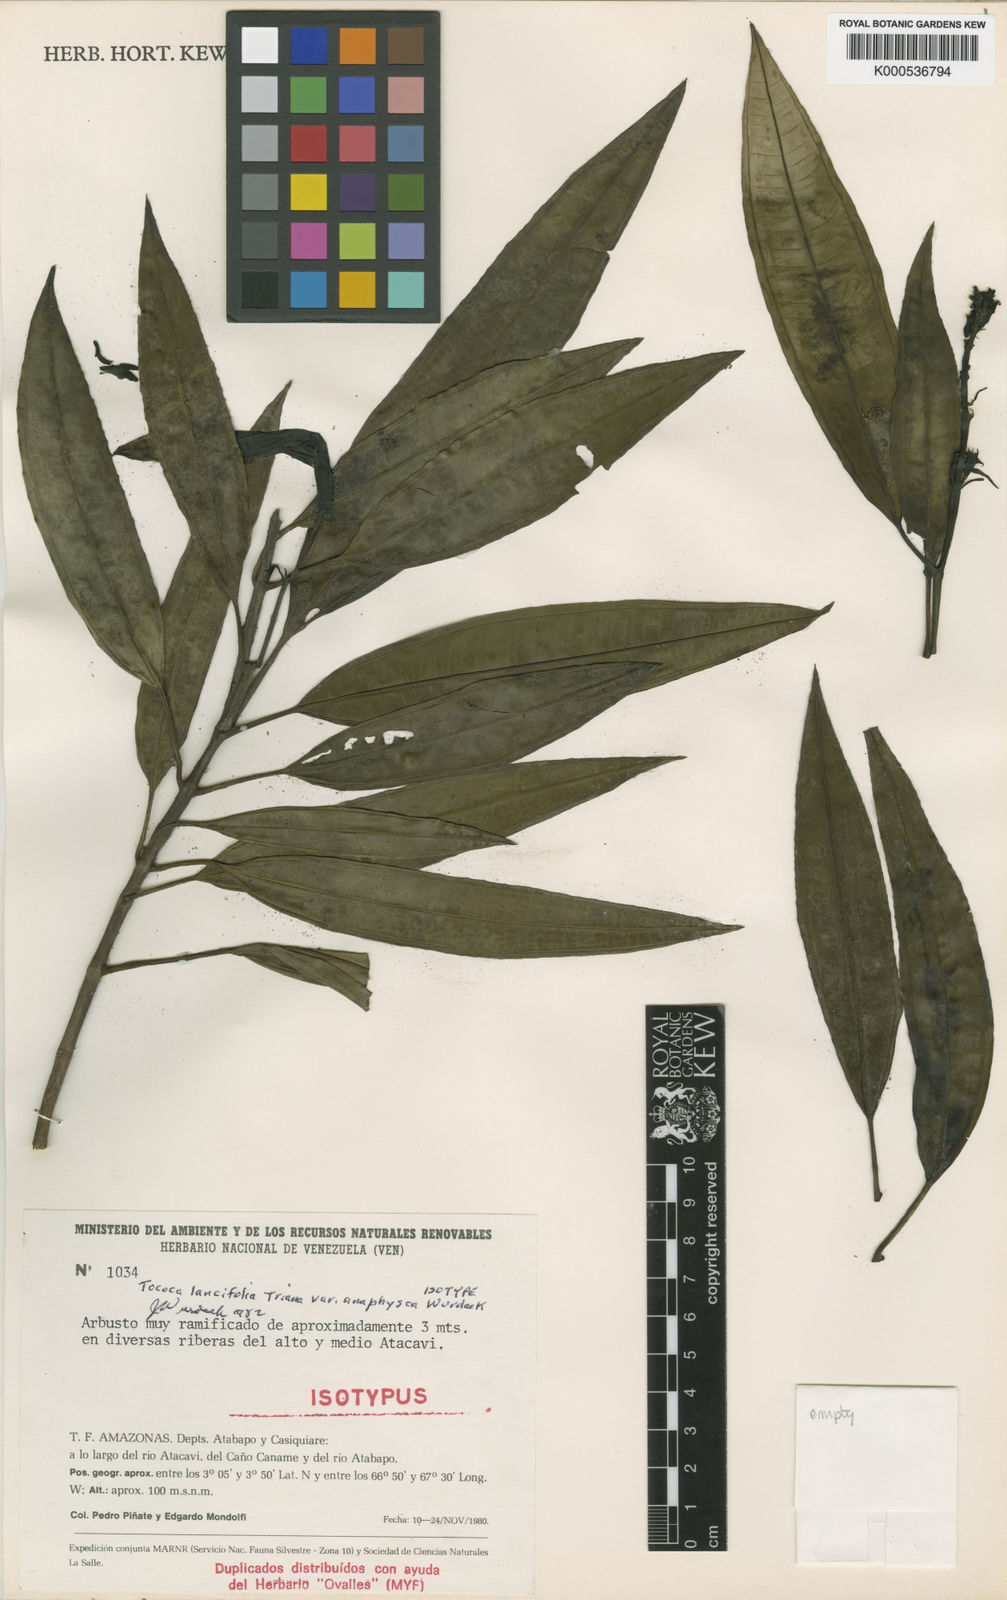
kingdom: Plantae
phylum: Tracheophyta
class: Magnoliopsida
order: Myrtales
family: Melastomataceae
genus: Miconia
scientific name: Miconia lancifolia
